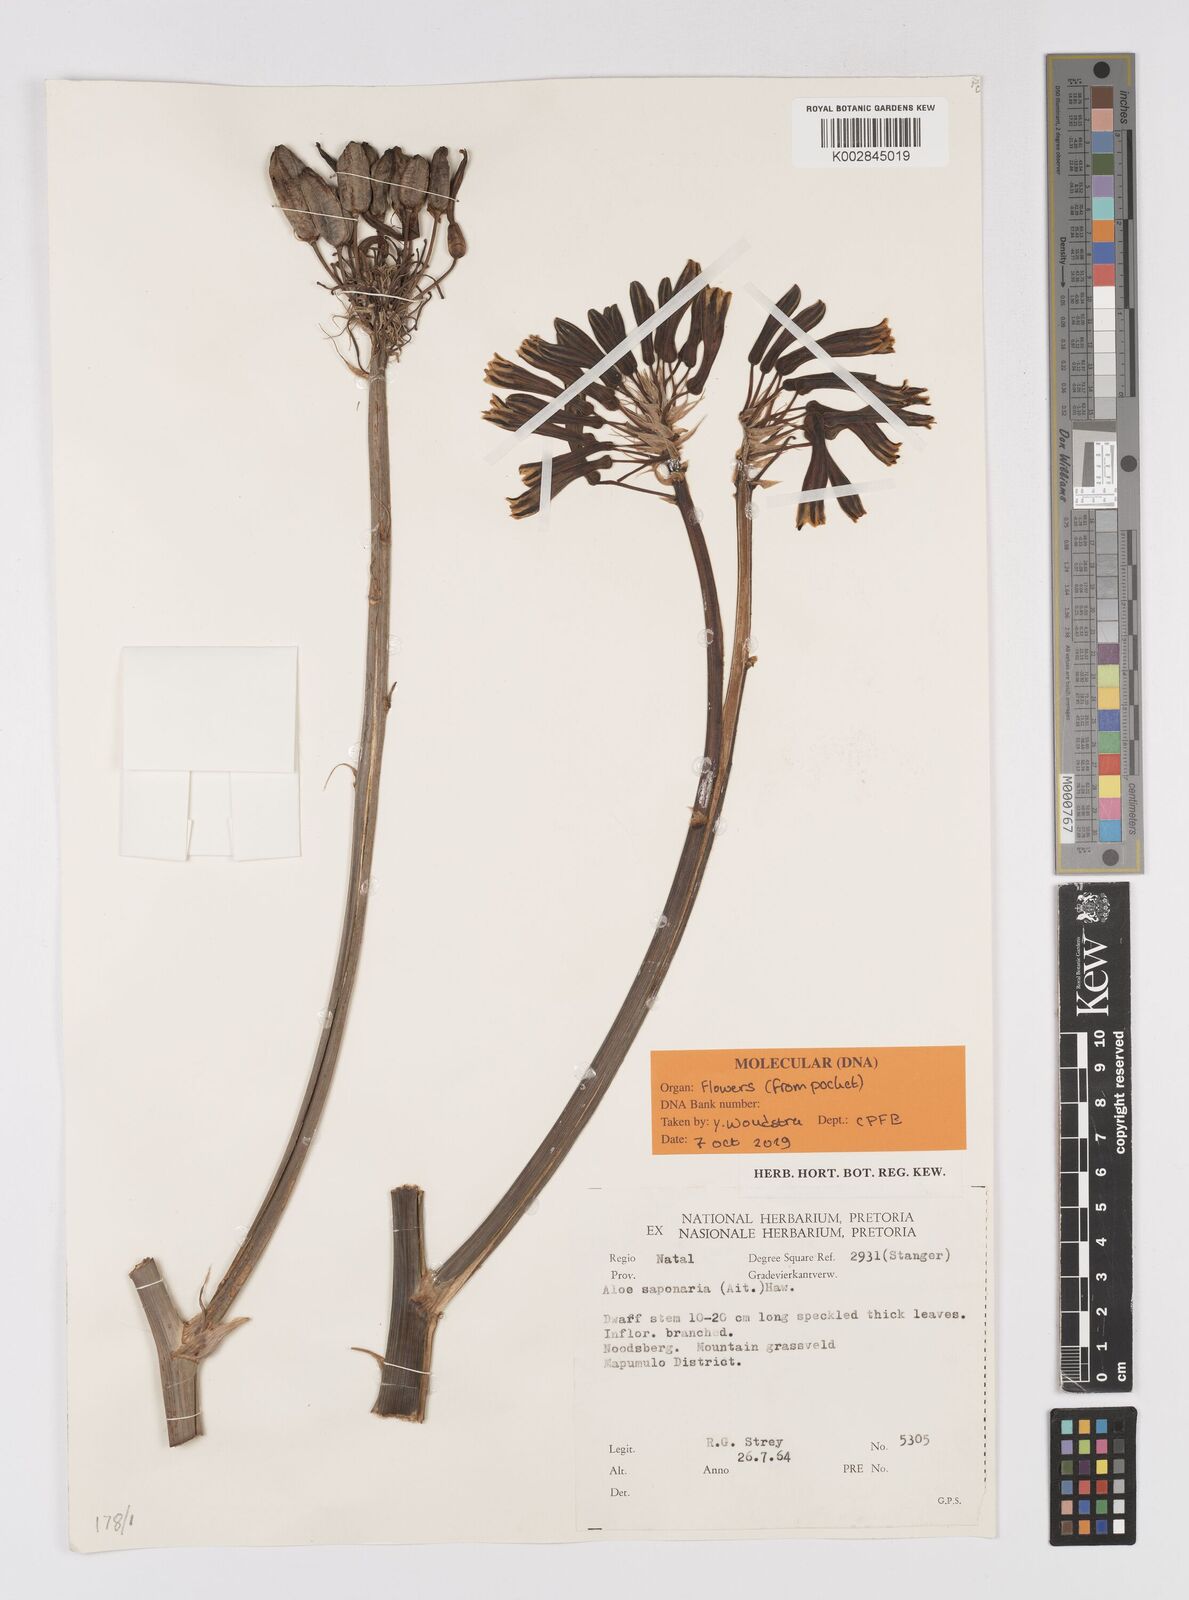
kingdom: Plantae
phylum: Tracheophyta
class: Liliopsida
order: Asparagales
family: Asphodelaceae
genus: Aloe
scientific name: Aloe microstigma
